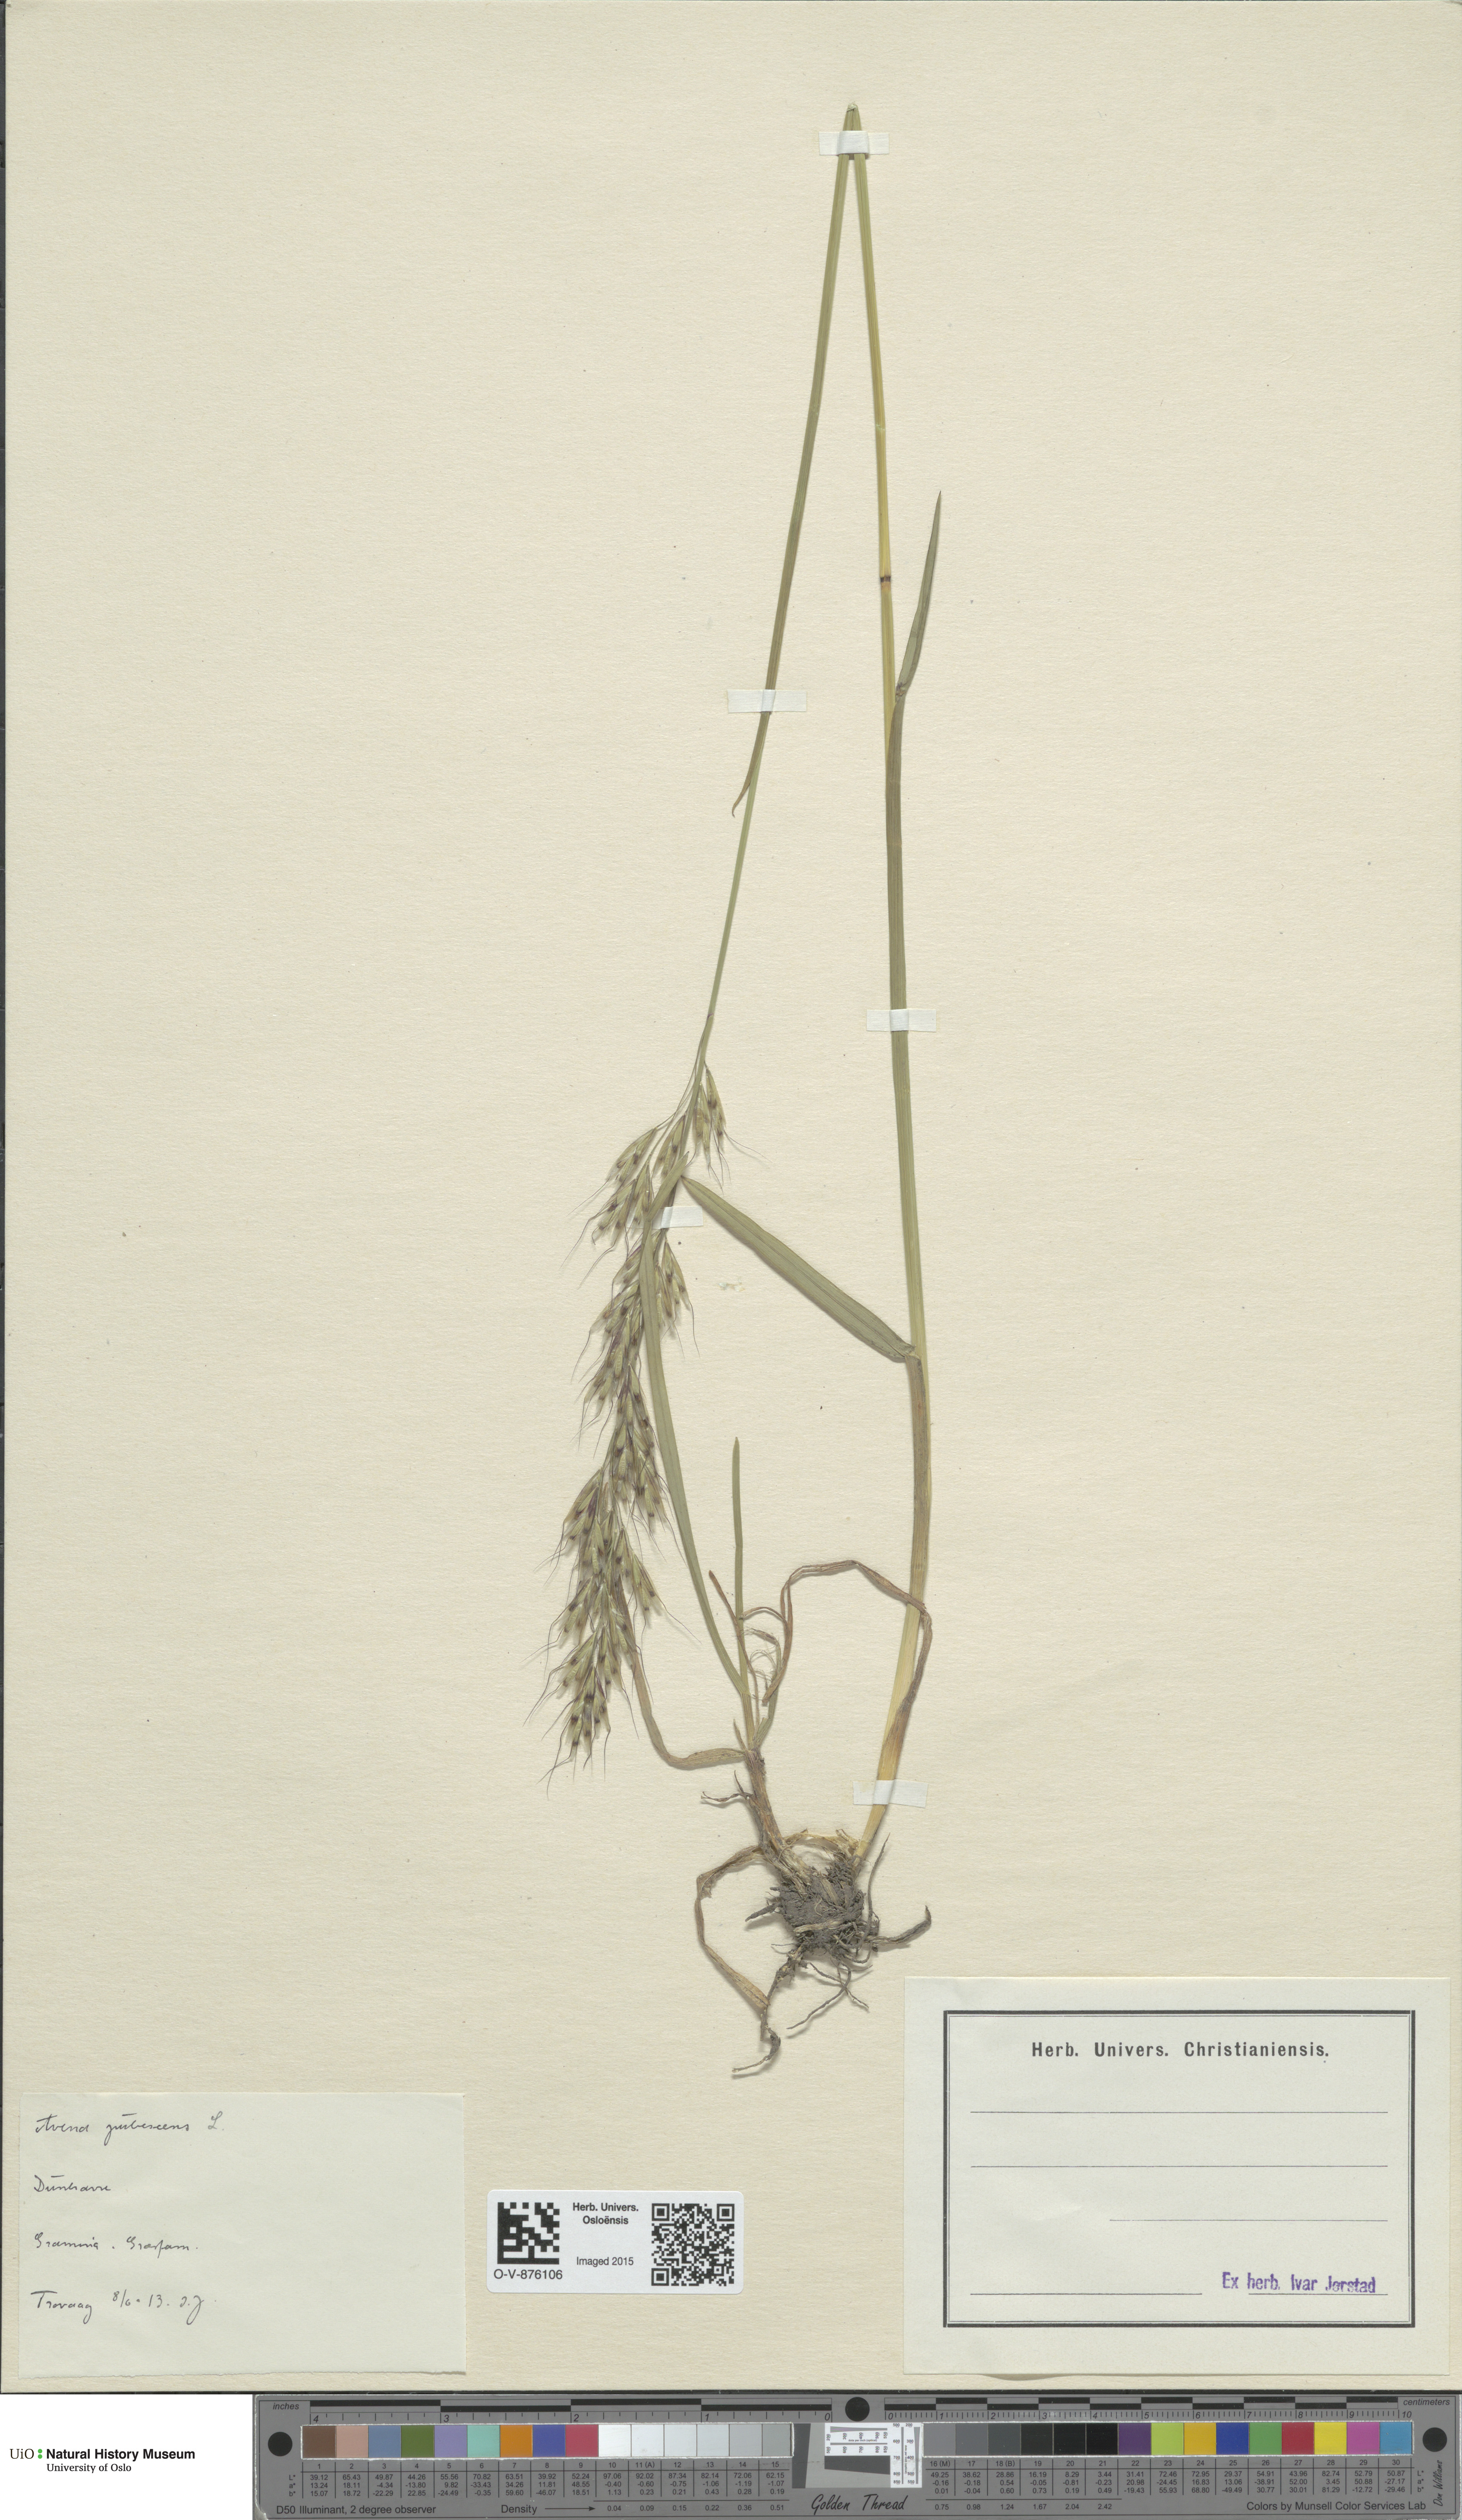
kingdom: Plantae
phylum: Tracheophyta
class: Liliopsida
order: Poales
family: Poaceae
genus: Avenula
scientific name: Avenula pubescens
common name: Downy alpine oatgrass
